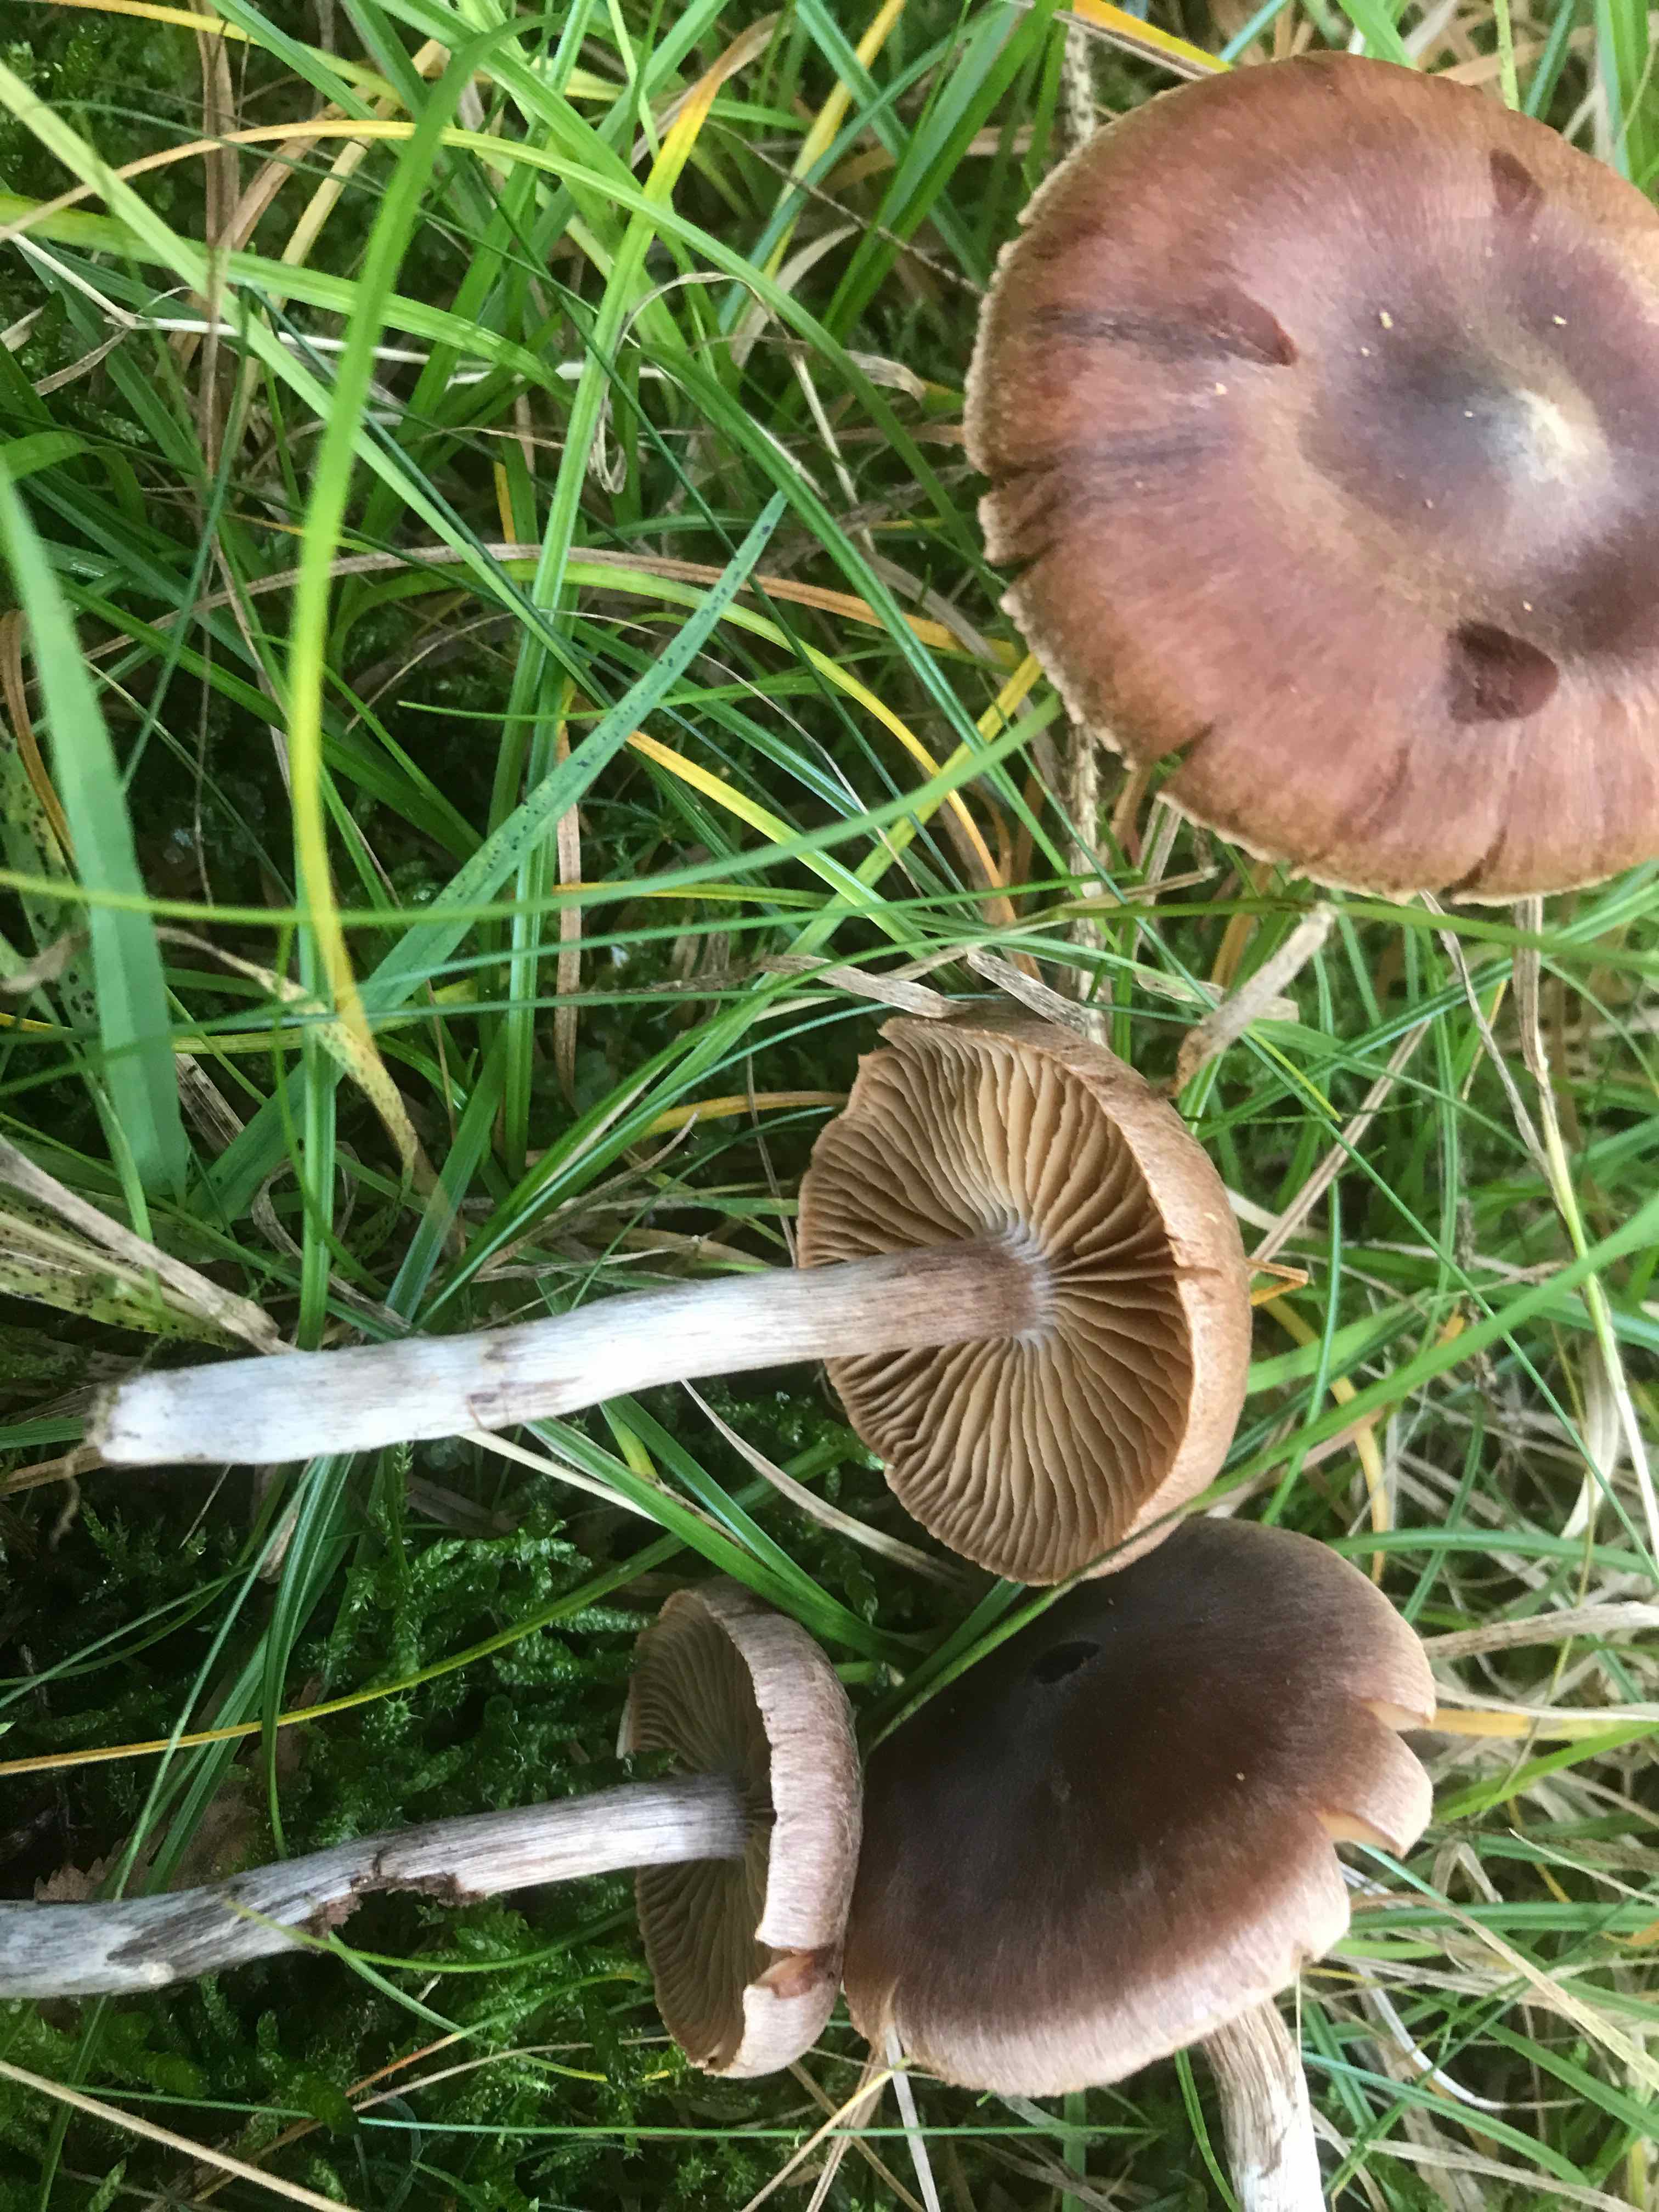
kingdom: Fungi
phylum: Basidiomycota
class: Agaricomycetes
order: Agaricales
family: Cortinariaceae
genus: Cortinarius
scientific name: Cortinarius
